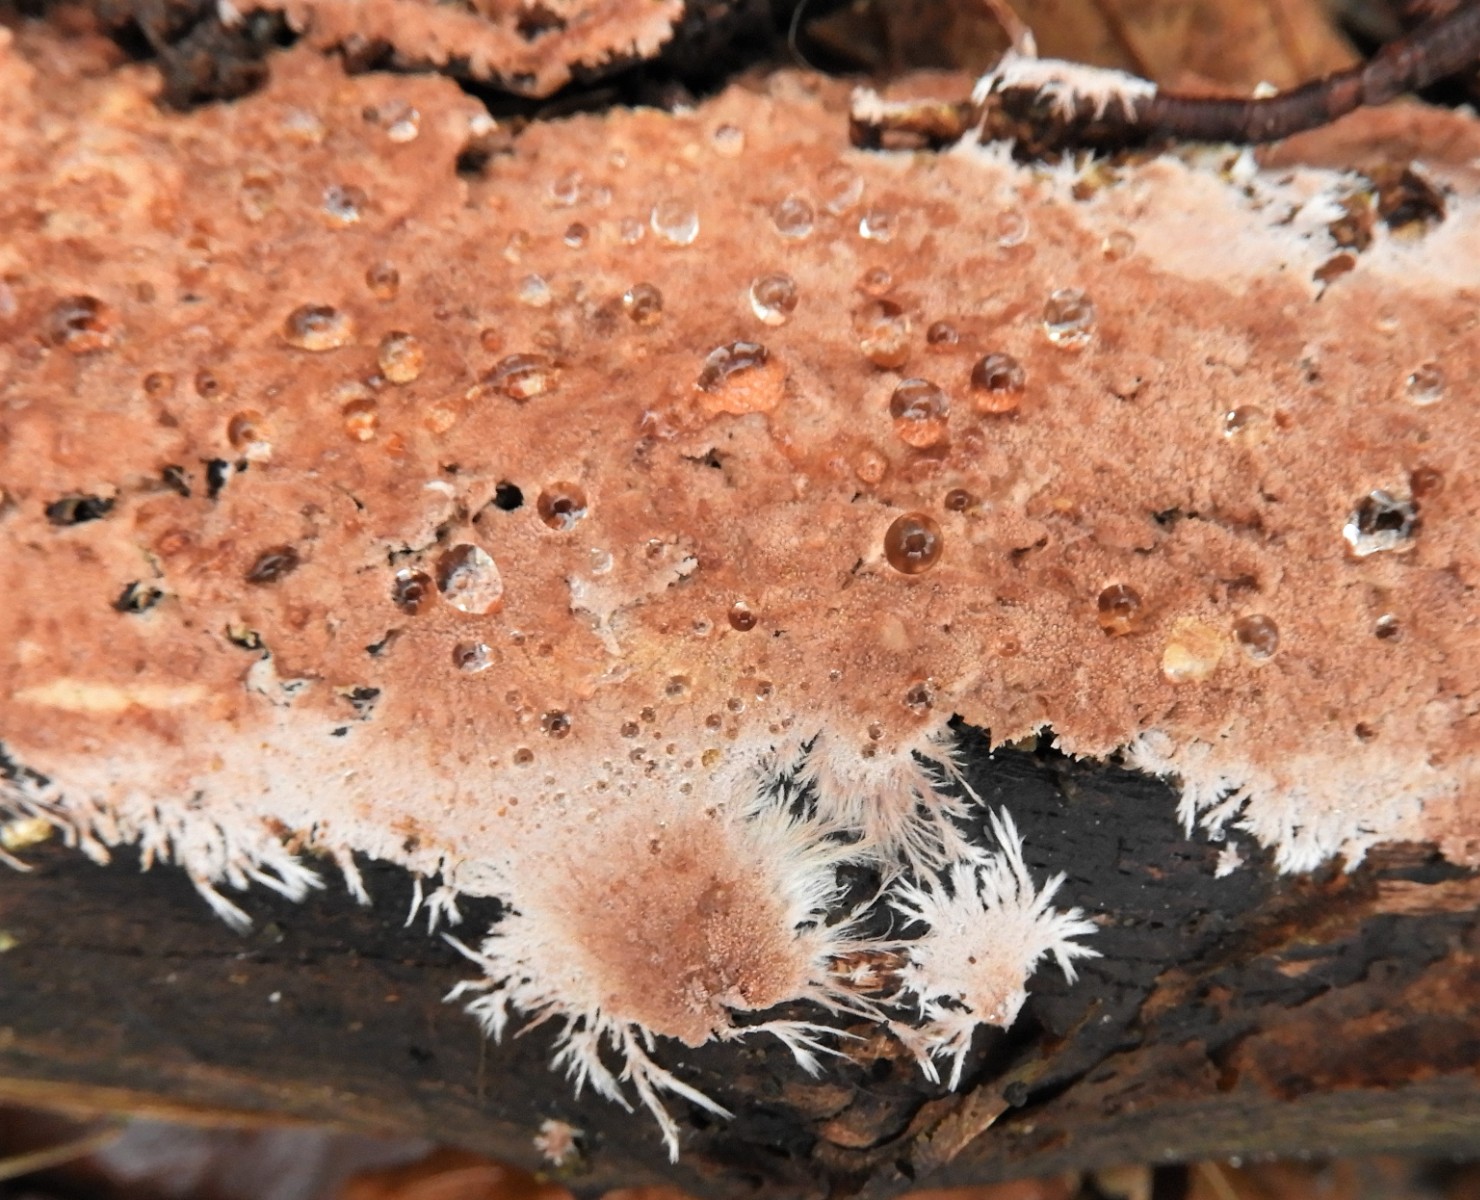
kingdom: Fungi
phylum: Basidiomycota
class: Agaricomycetes
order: Polyporales
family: Steccherinaceae
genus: Steccherinum
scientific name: Steccherinum fimbriatum
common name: trådet skønpig
